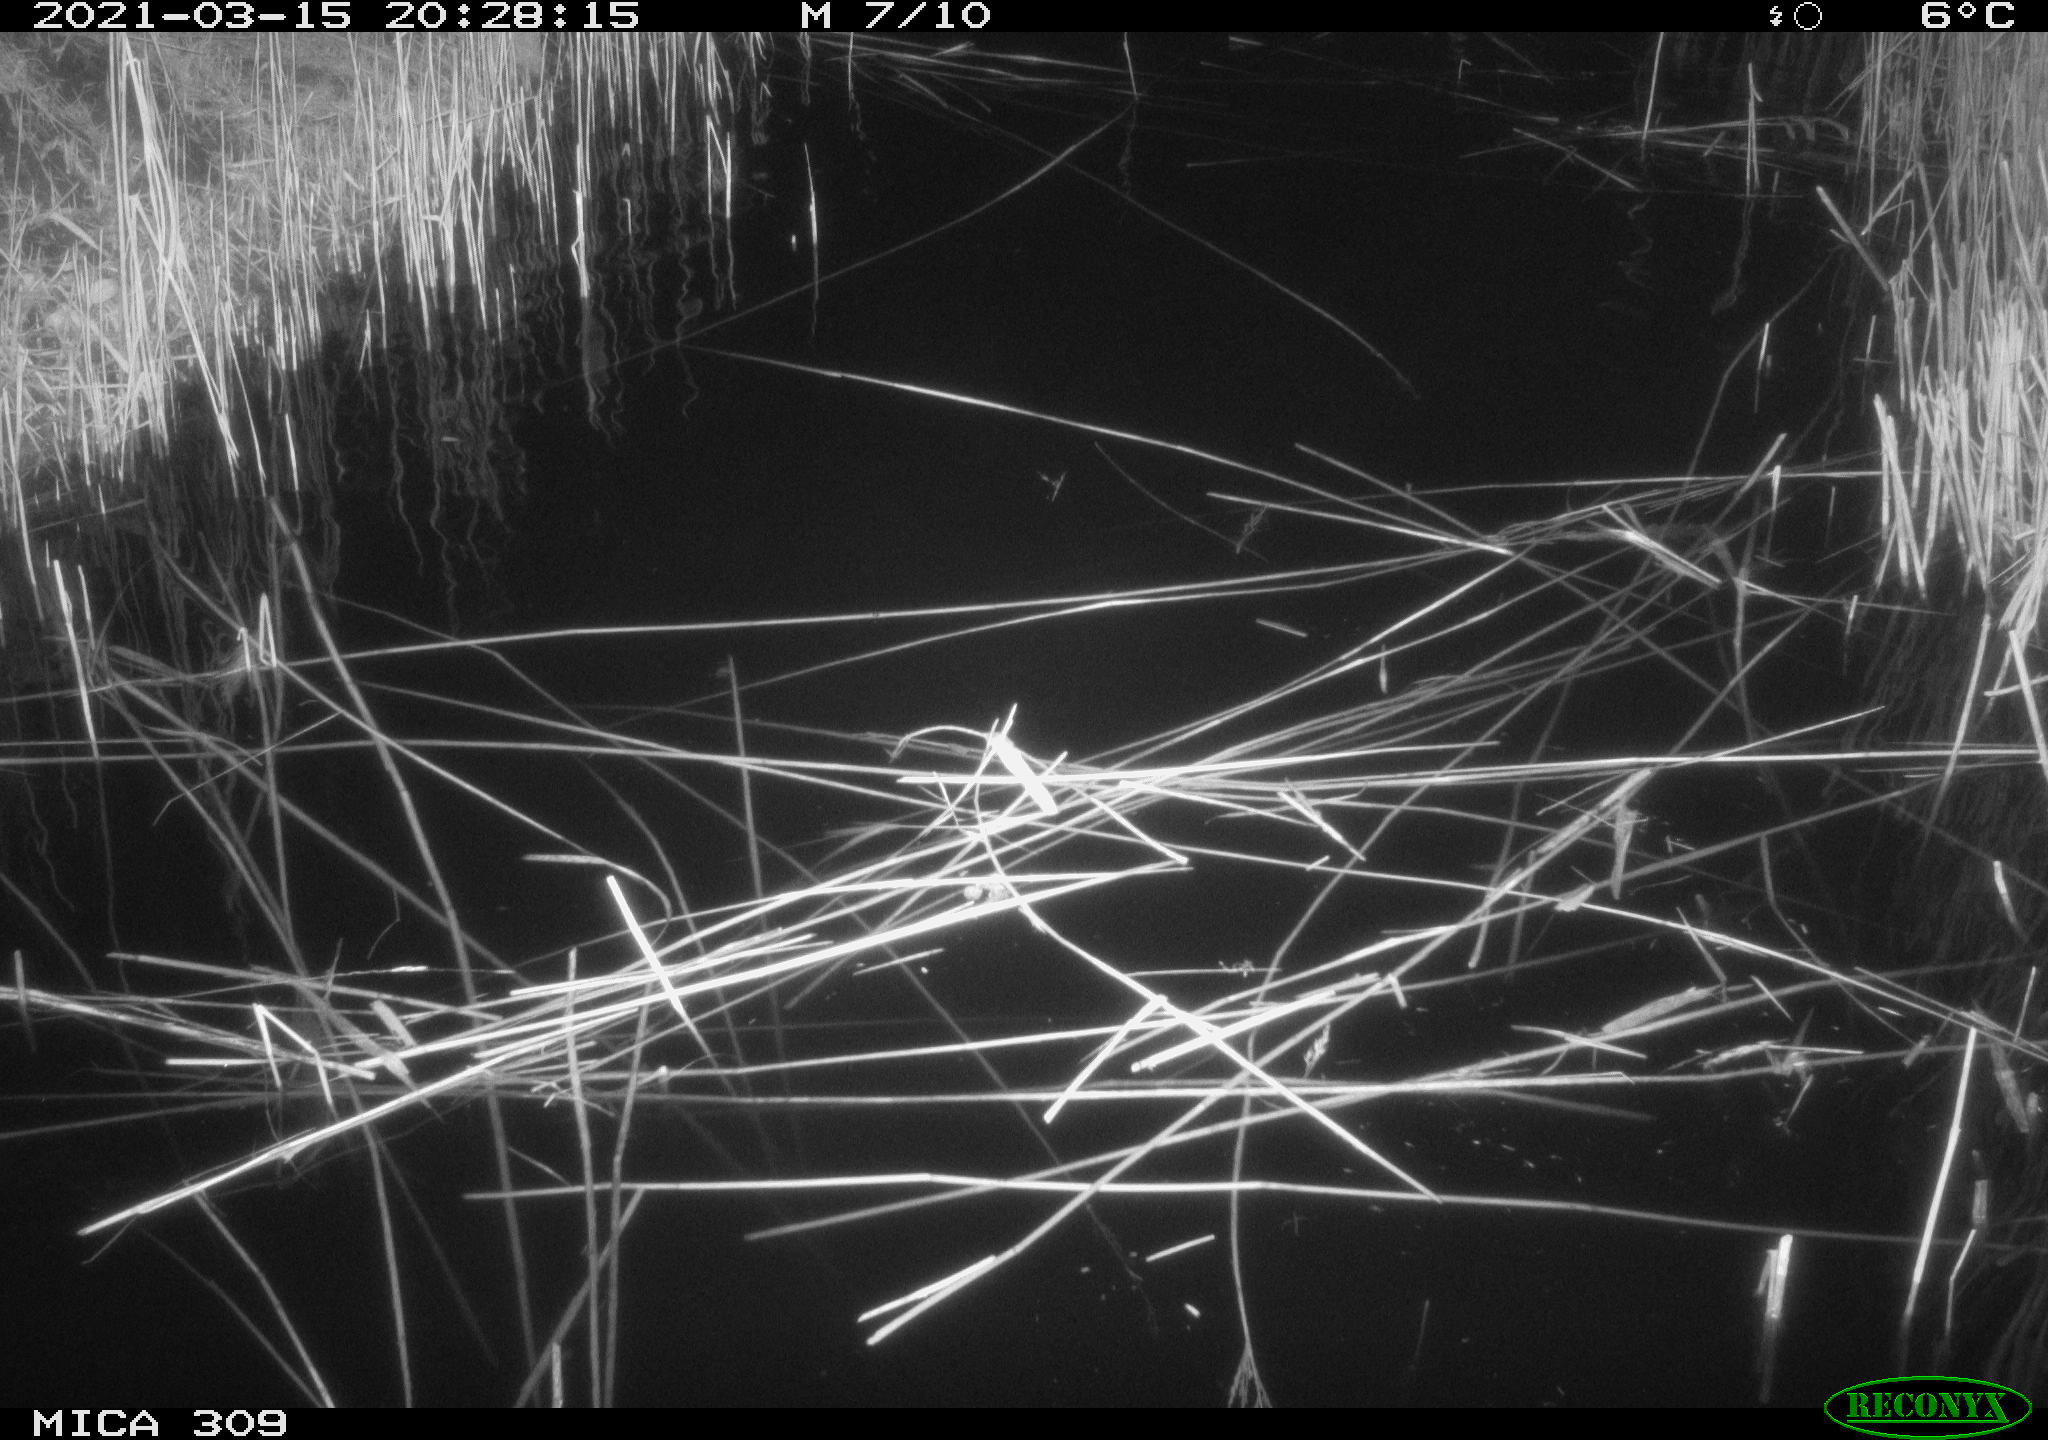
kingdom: Animalia
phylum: Chordata
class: Mammalia
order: Rodentia
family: Cricetidae
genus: Ondatra
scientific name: Ondatra zibethicus
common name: Muskrat
